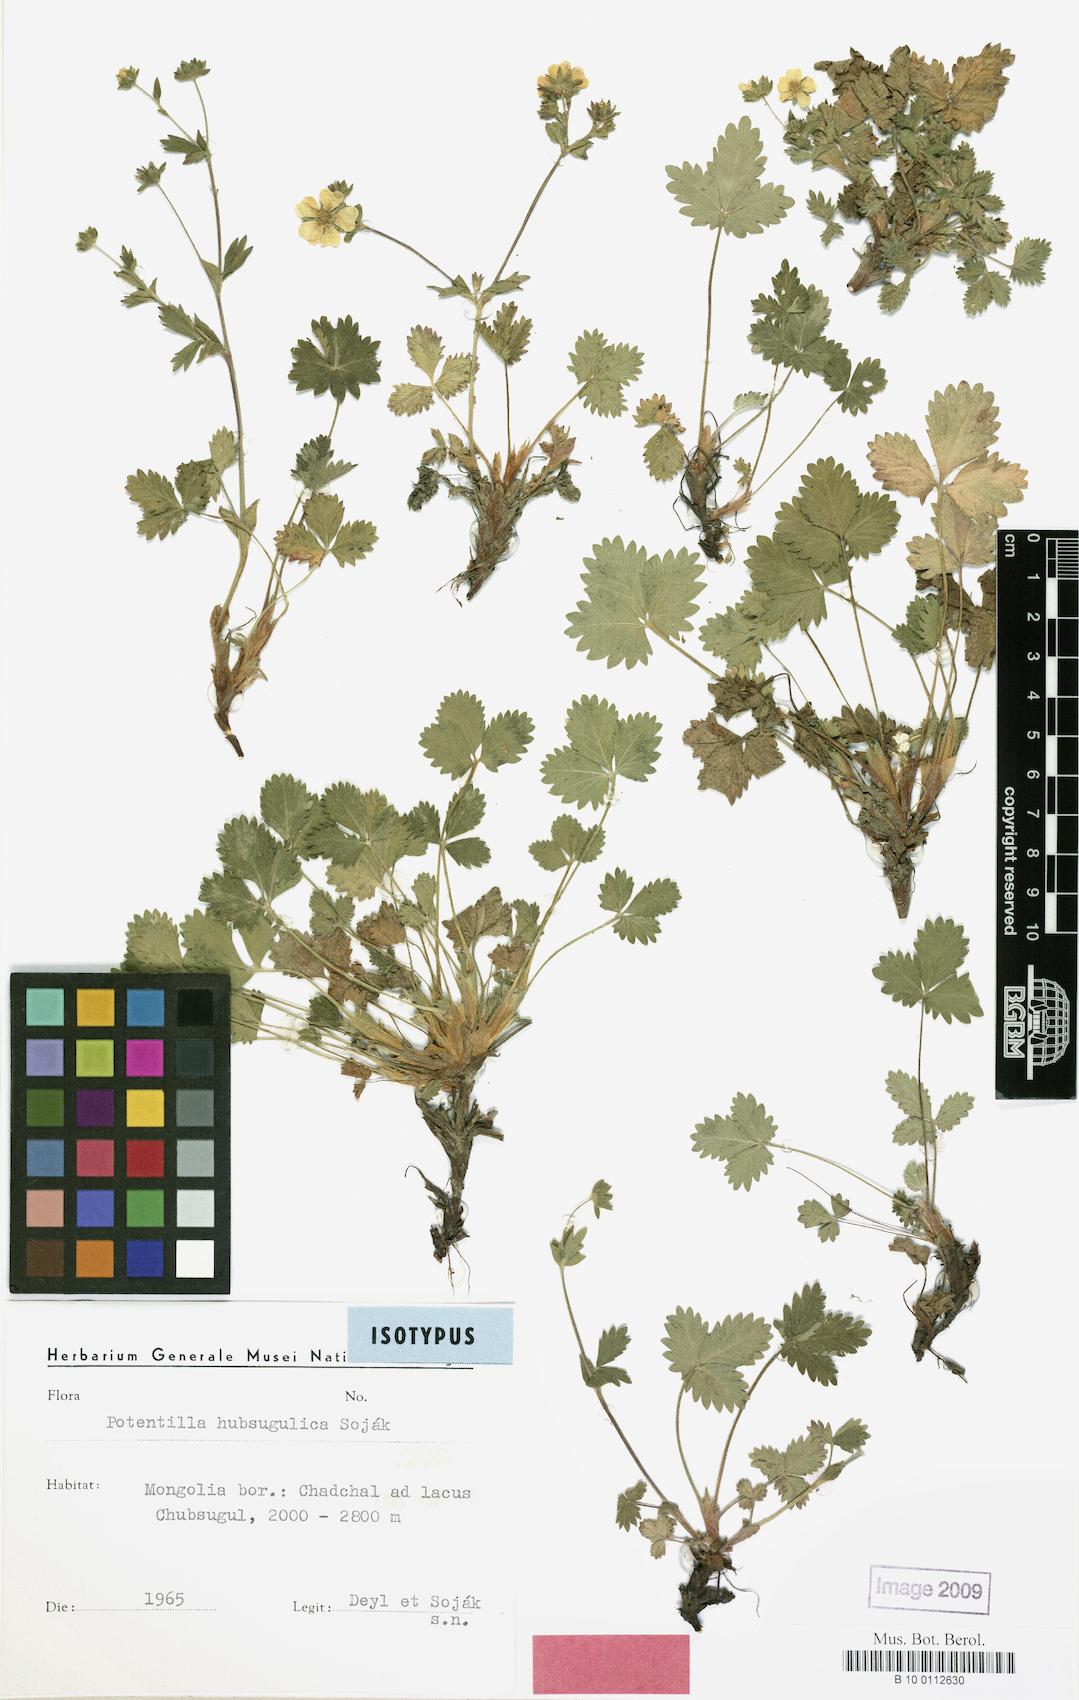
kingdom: Plantae
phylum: Tracheophyta
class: Magnoliopsida
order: Rosales
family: Rosaceae
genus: Potentilla
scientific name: Potentilla hubsugulica
